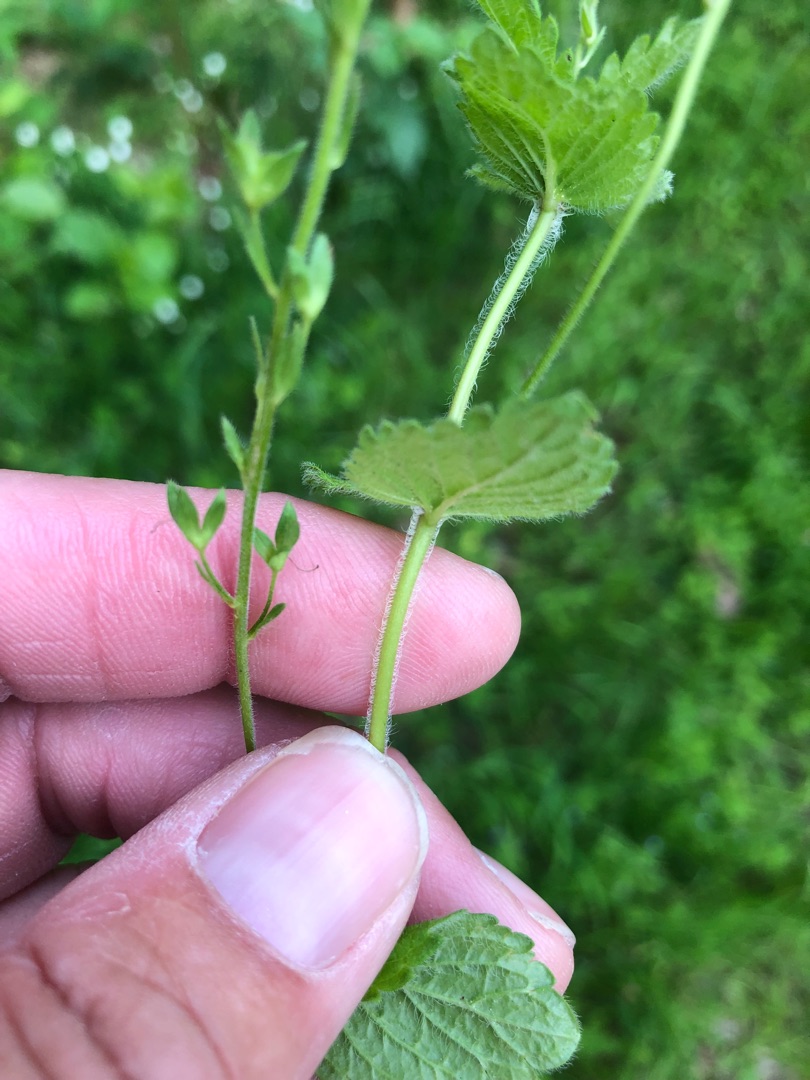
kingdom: Plantae
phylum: Tracheophyta
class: Magnoliopsida
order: Lamiales
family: Plantaginaceae
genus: Veronica
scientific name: Veronica chamaedrys
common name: Tveskægget ærenpris
